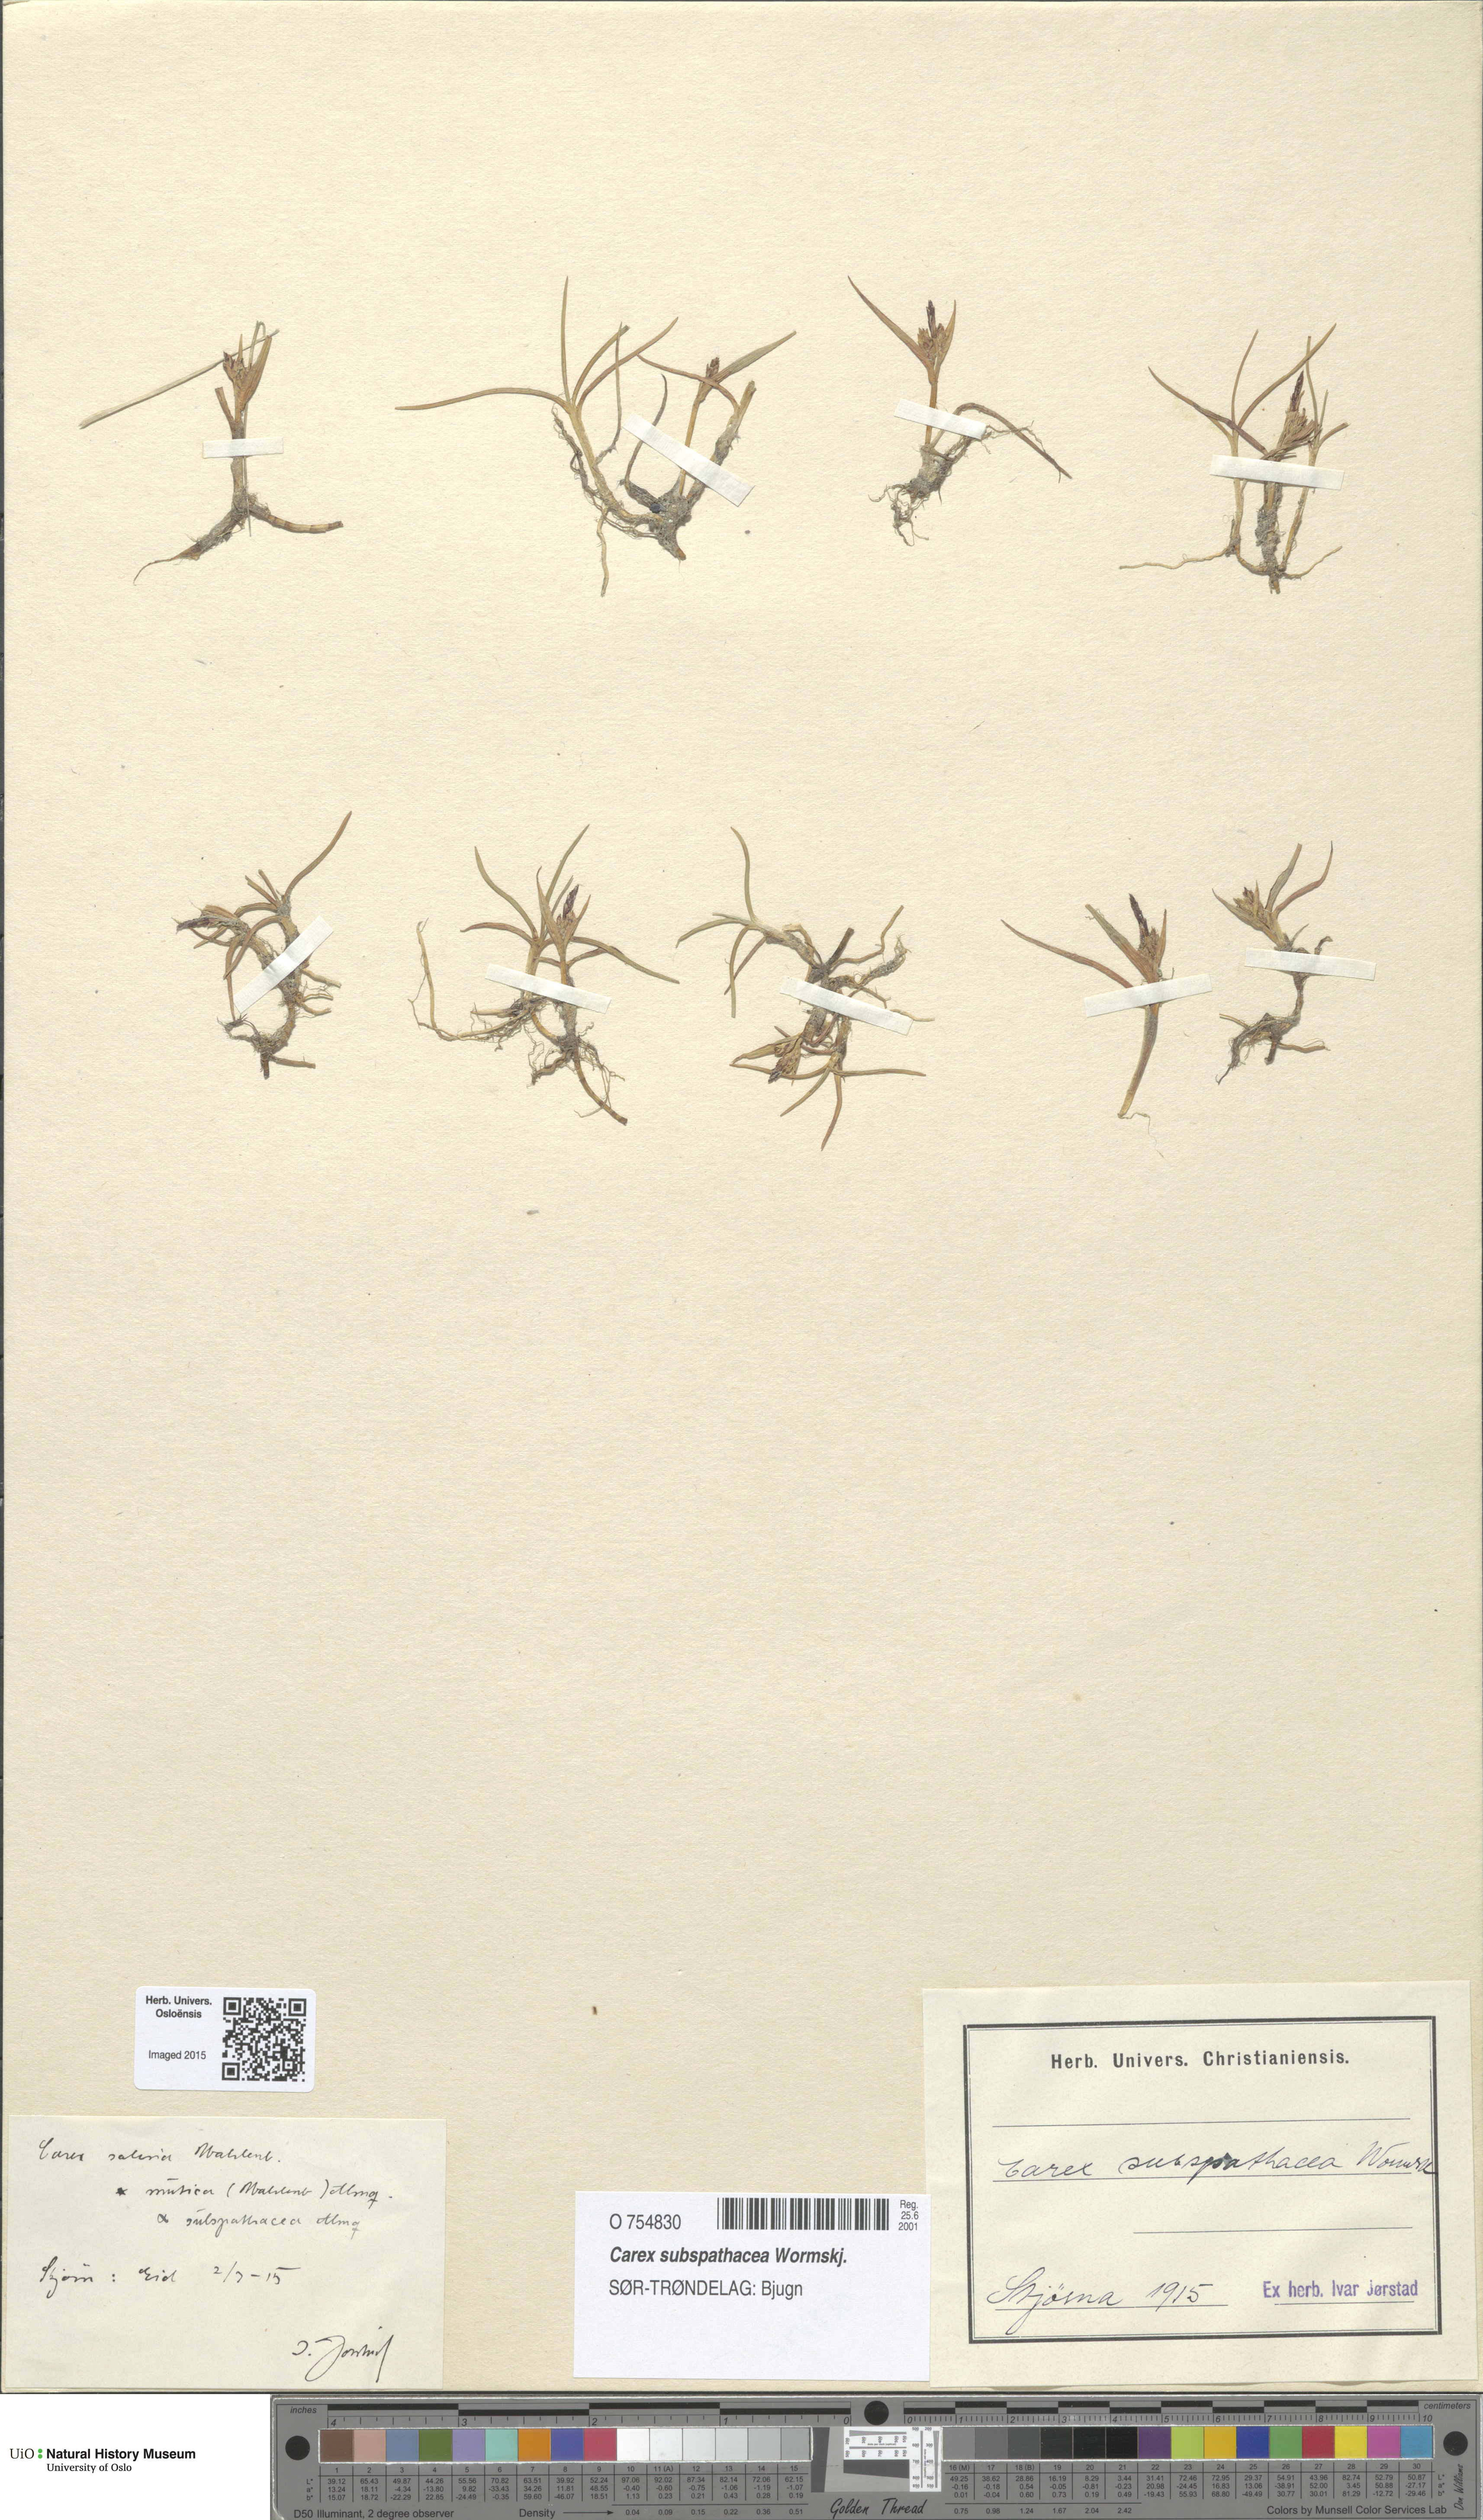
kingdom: Plantae
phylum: Tracheophyta
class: Liliopsida
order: Poales
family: Cyperaceae
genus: Carex
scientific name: Carex subspathacea
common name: Hoppner's sedge
